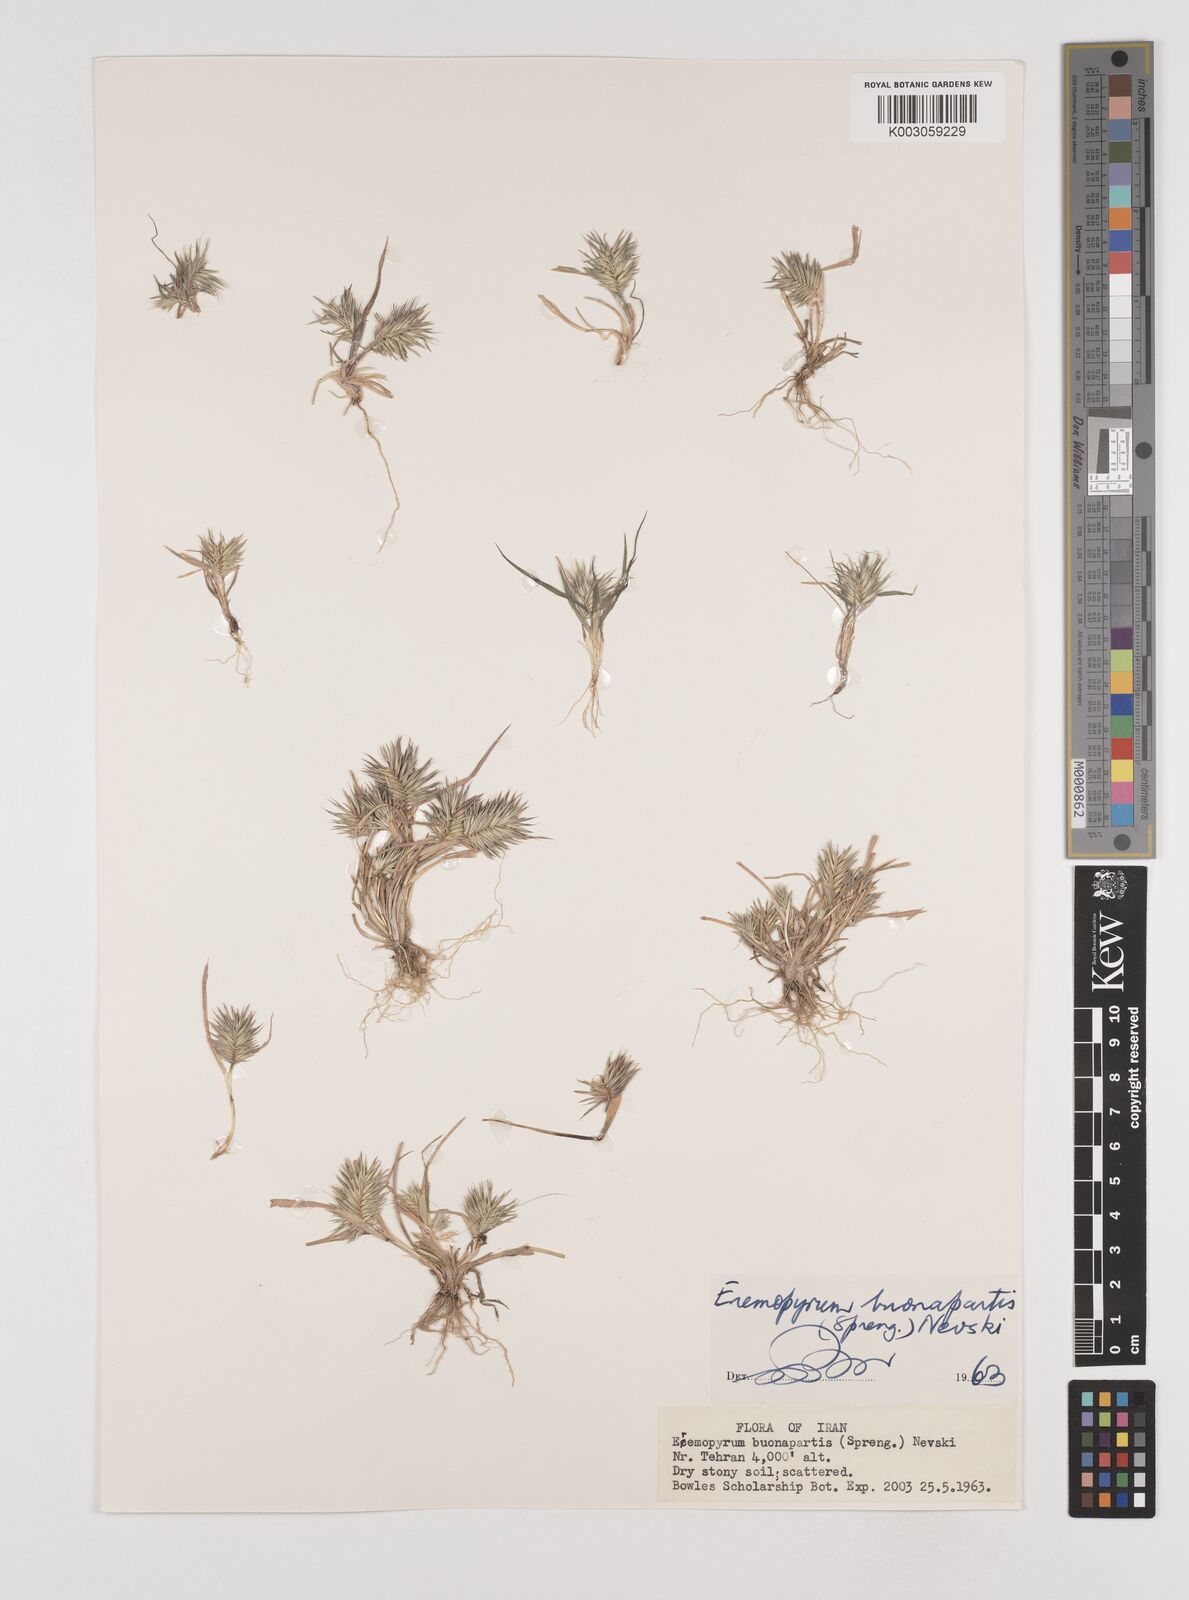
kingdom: Plantae
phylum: Tracheophyta
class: Liliopsida
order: Poales
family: Poaceae
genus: Eremopyrum
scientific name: Eremopyrum bonaepartis
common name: Tapertip false wheatgrass
